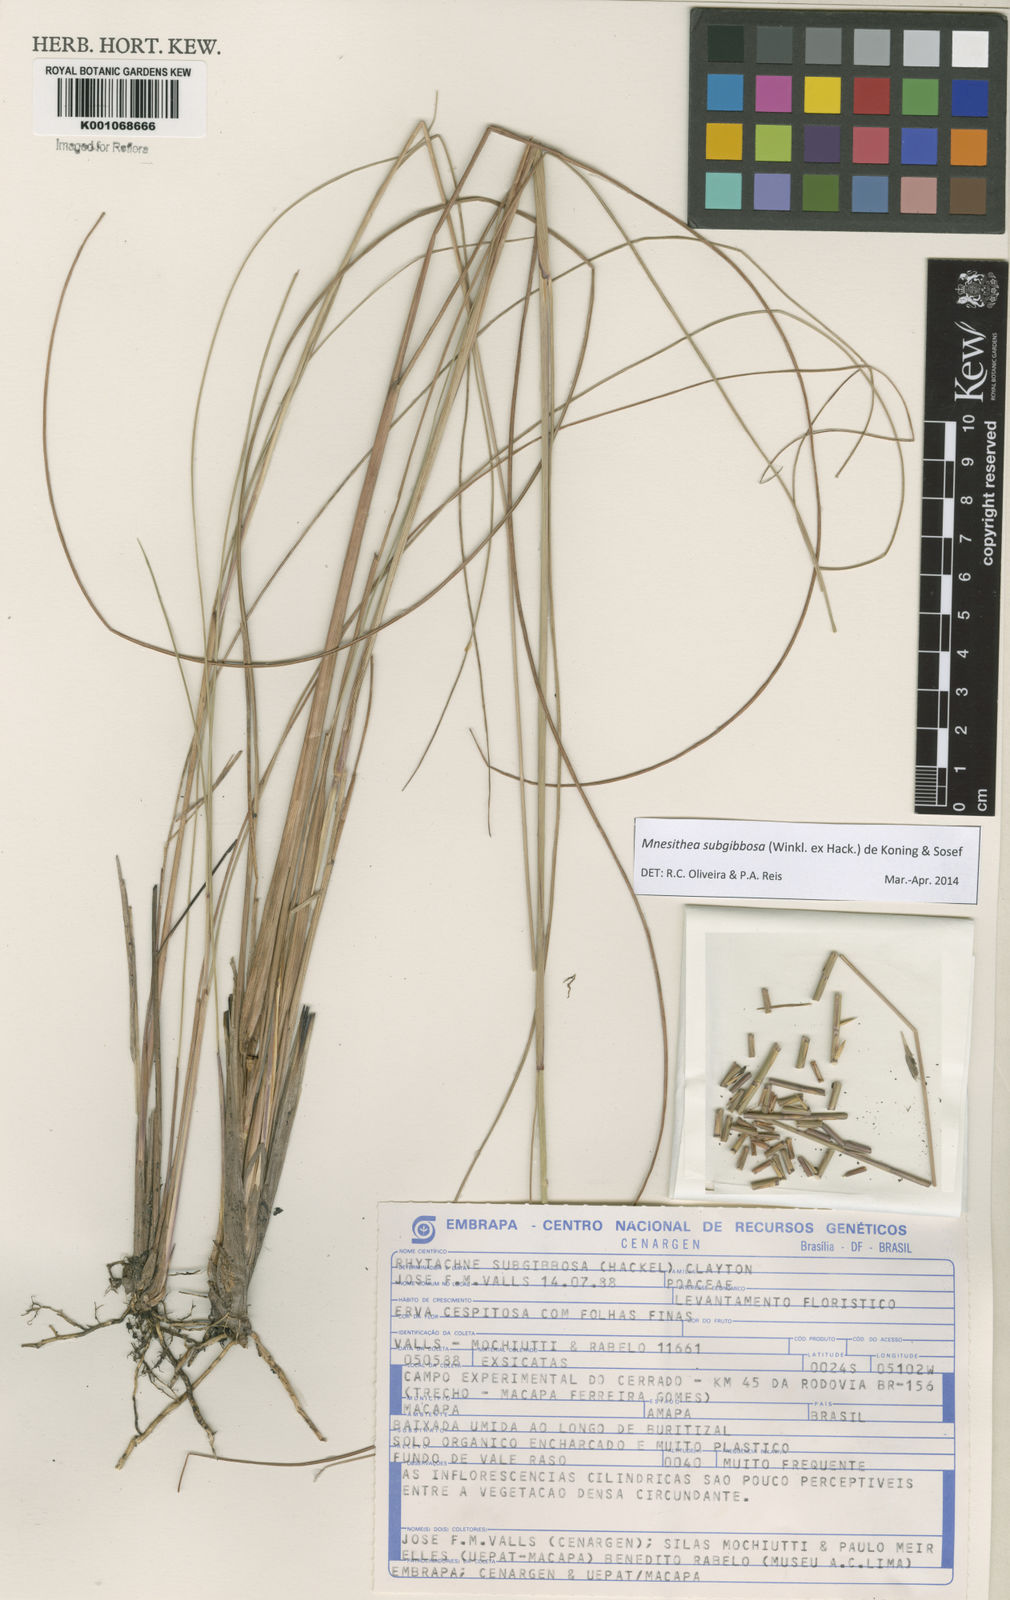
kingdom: Plantae
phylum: Tracheophyta
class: Liliopsida
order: Poales
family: Poaceae
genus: Rhytachne
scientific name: Rhytachne subgibbosa
